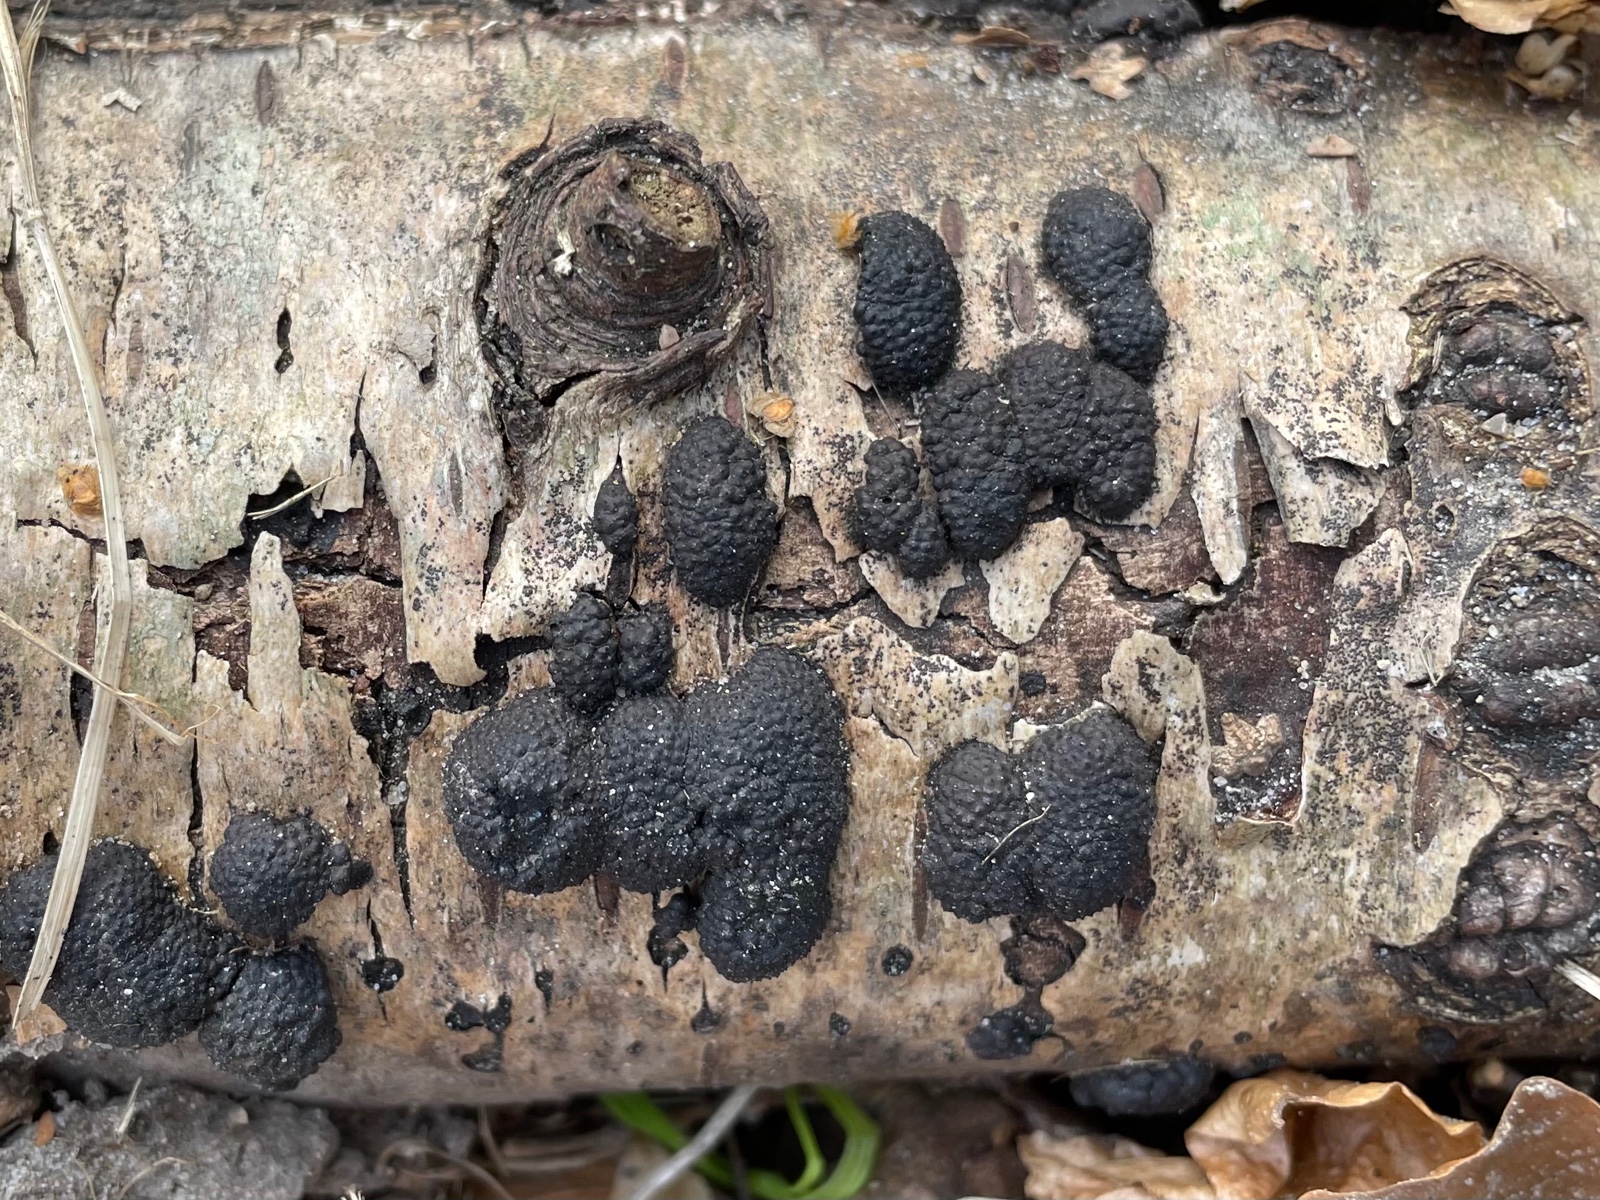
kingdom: Fungi
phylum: Ascomycota
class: Sordariomycetes
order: Xylariales
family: Hypoxylaceae
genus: Jackrogersella
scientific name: Jackrogersella multiformis
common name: foranderlig kulbær
